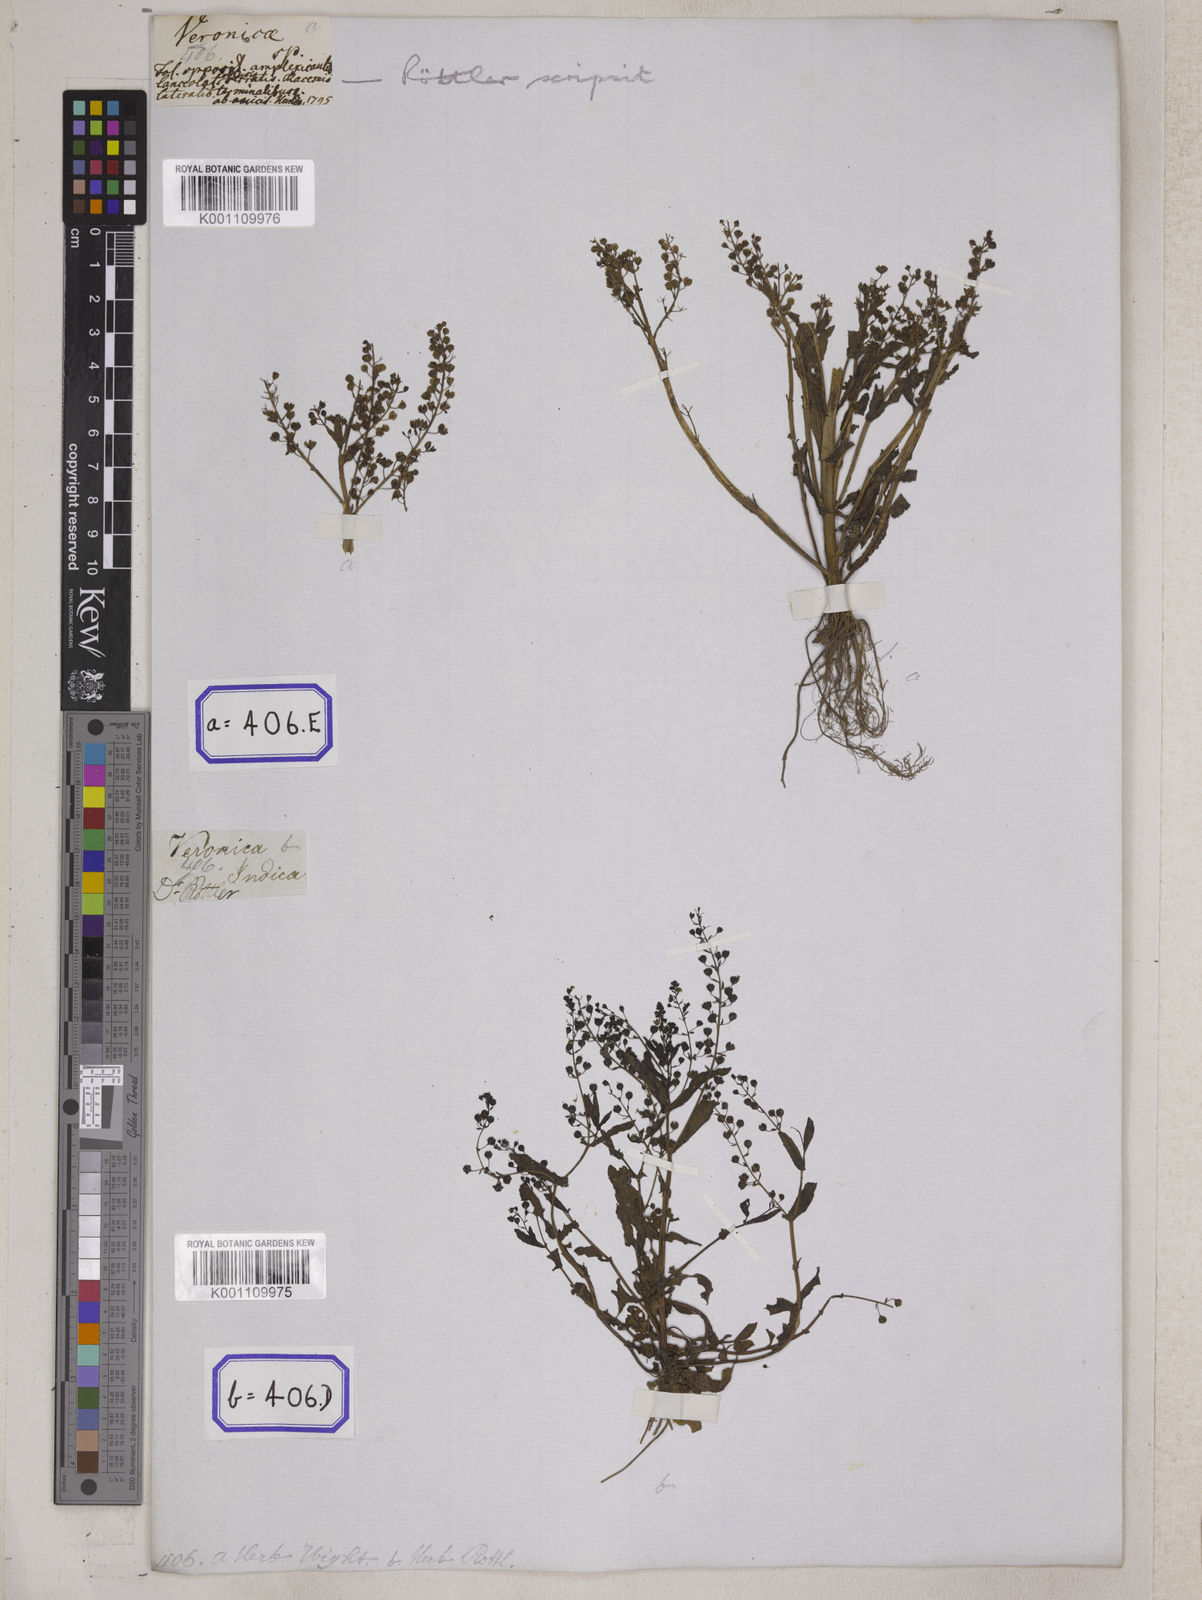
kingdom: Plantae
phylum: Tracheophyta
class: Magnoliopsida
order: Lamiales
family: Plantaginaceae
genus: Veronica
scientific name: Veronica undulata
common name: Undulate speedwell
